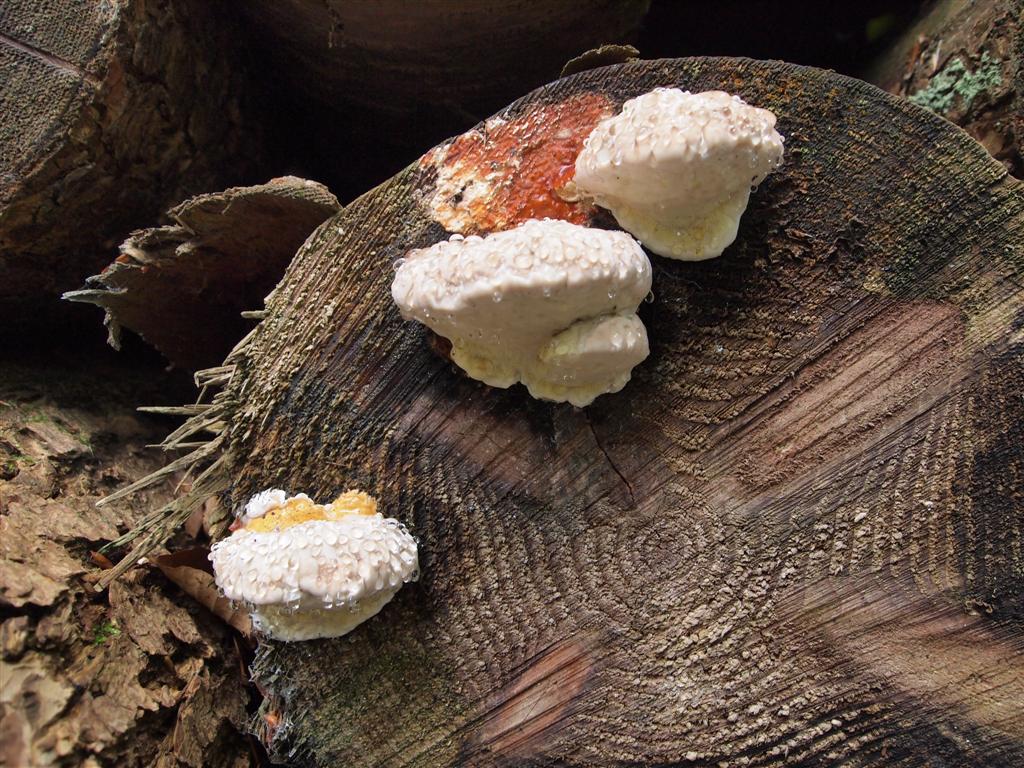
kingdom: Fungi
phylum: Basidiomycota
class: Agaricomycetes
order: Polyporales
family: Fomitopsidaceae
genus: Fomitopsis
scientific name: Fomitopsis pinicola
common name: randbæltet hovporesvamp
